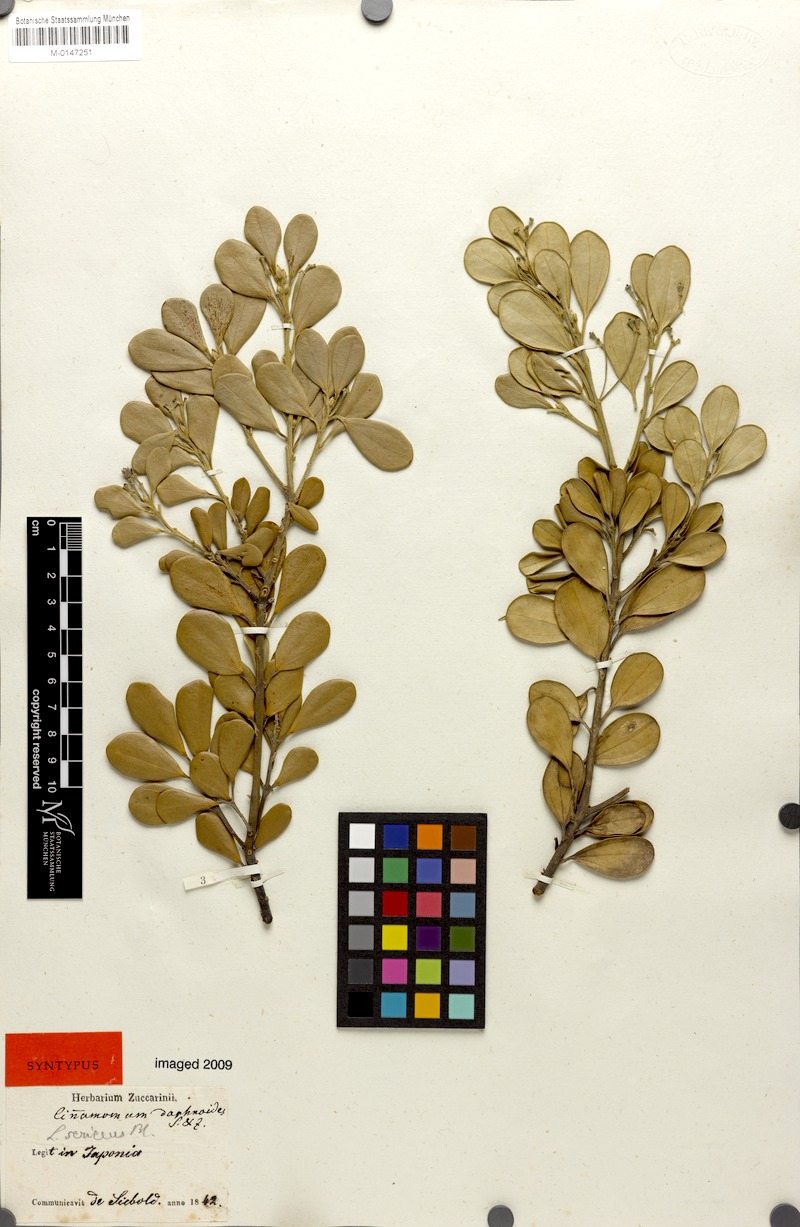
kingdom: Plantae
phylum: Tracheophyta
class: Magnoliopsida
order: Laurales
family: Lauraceae
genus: Cinnamomum
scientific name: Cinnamomum daphnoides
